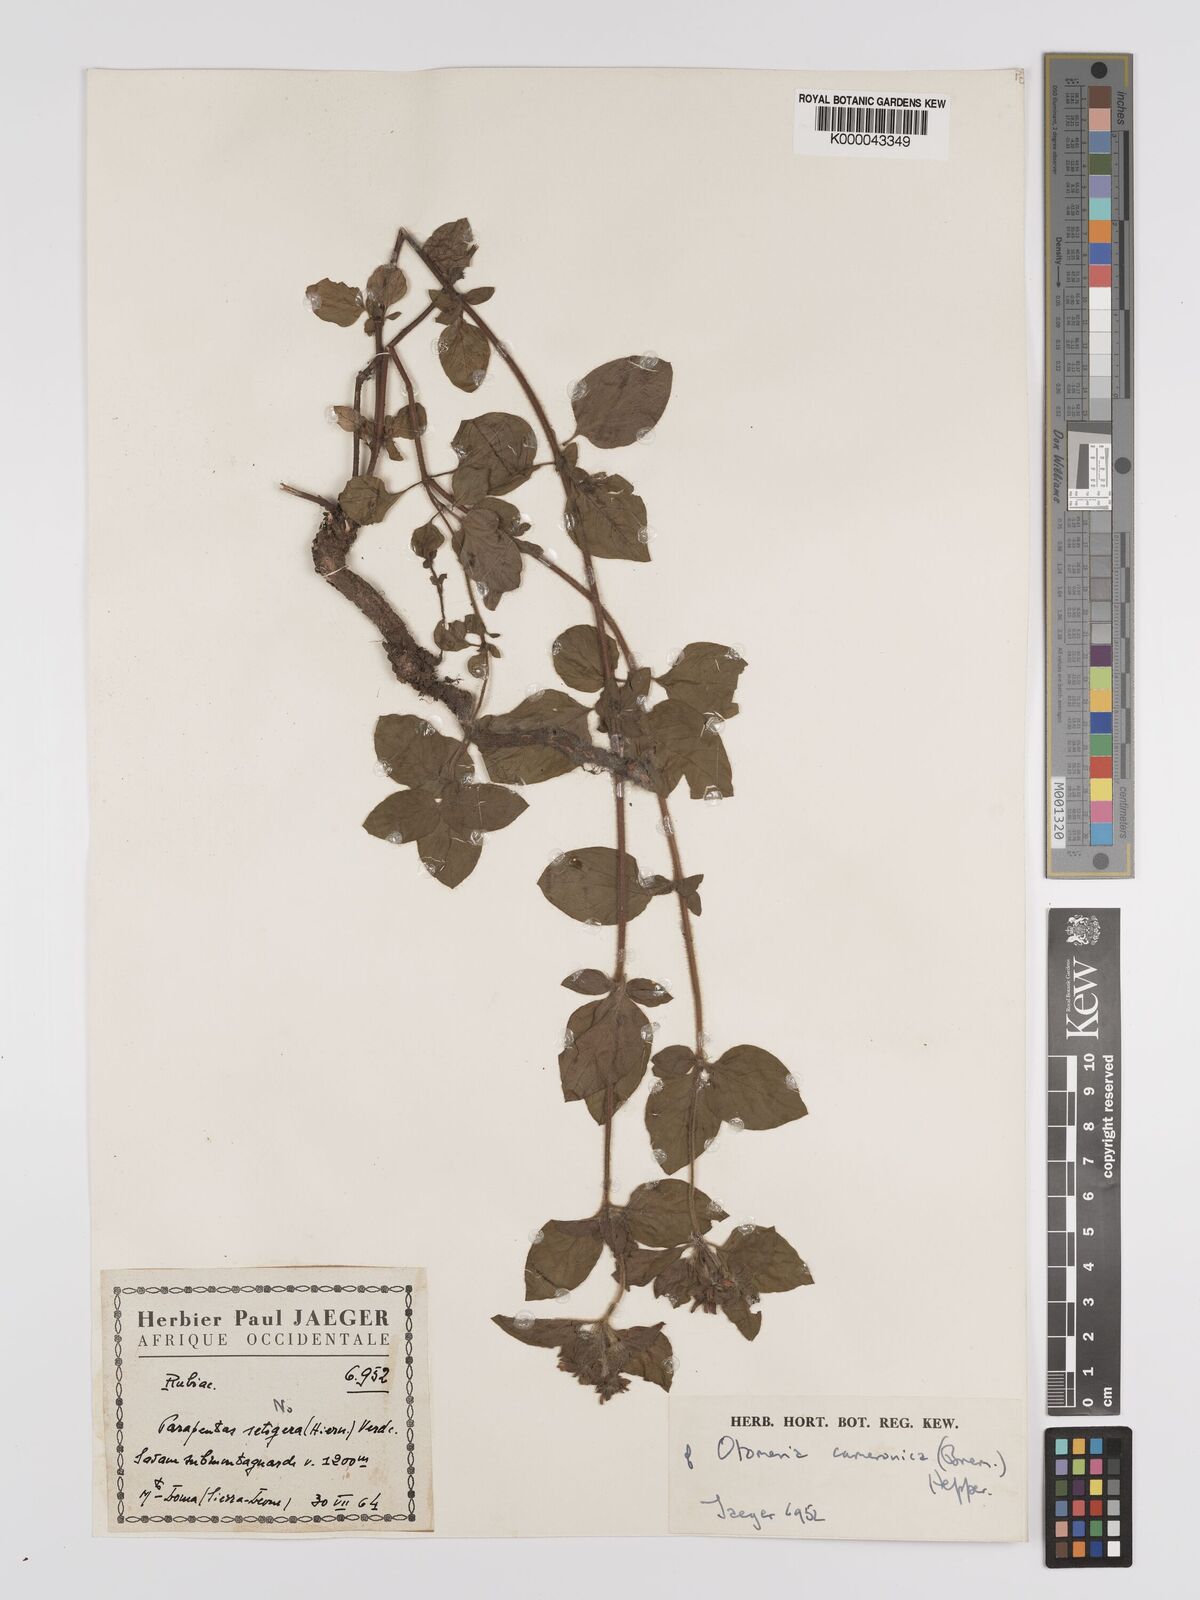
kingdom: Plantae
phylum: Tracheophyta
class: Magnoliopsida
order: Gentianales
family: Rubiaceae
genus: Otomeria
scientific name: Otomeria cameronica
